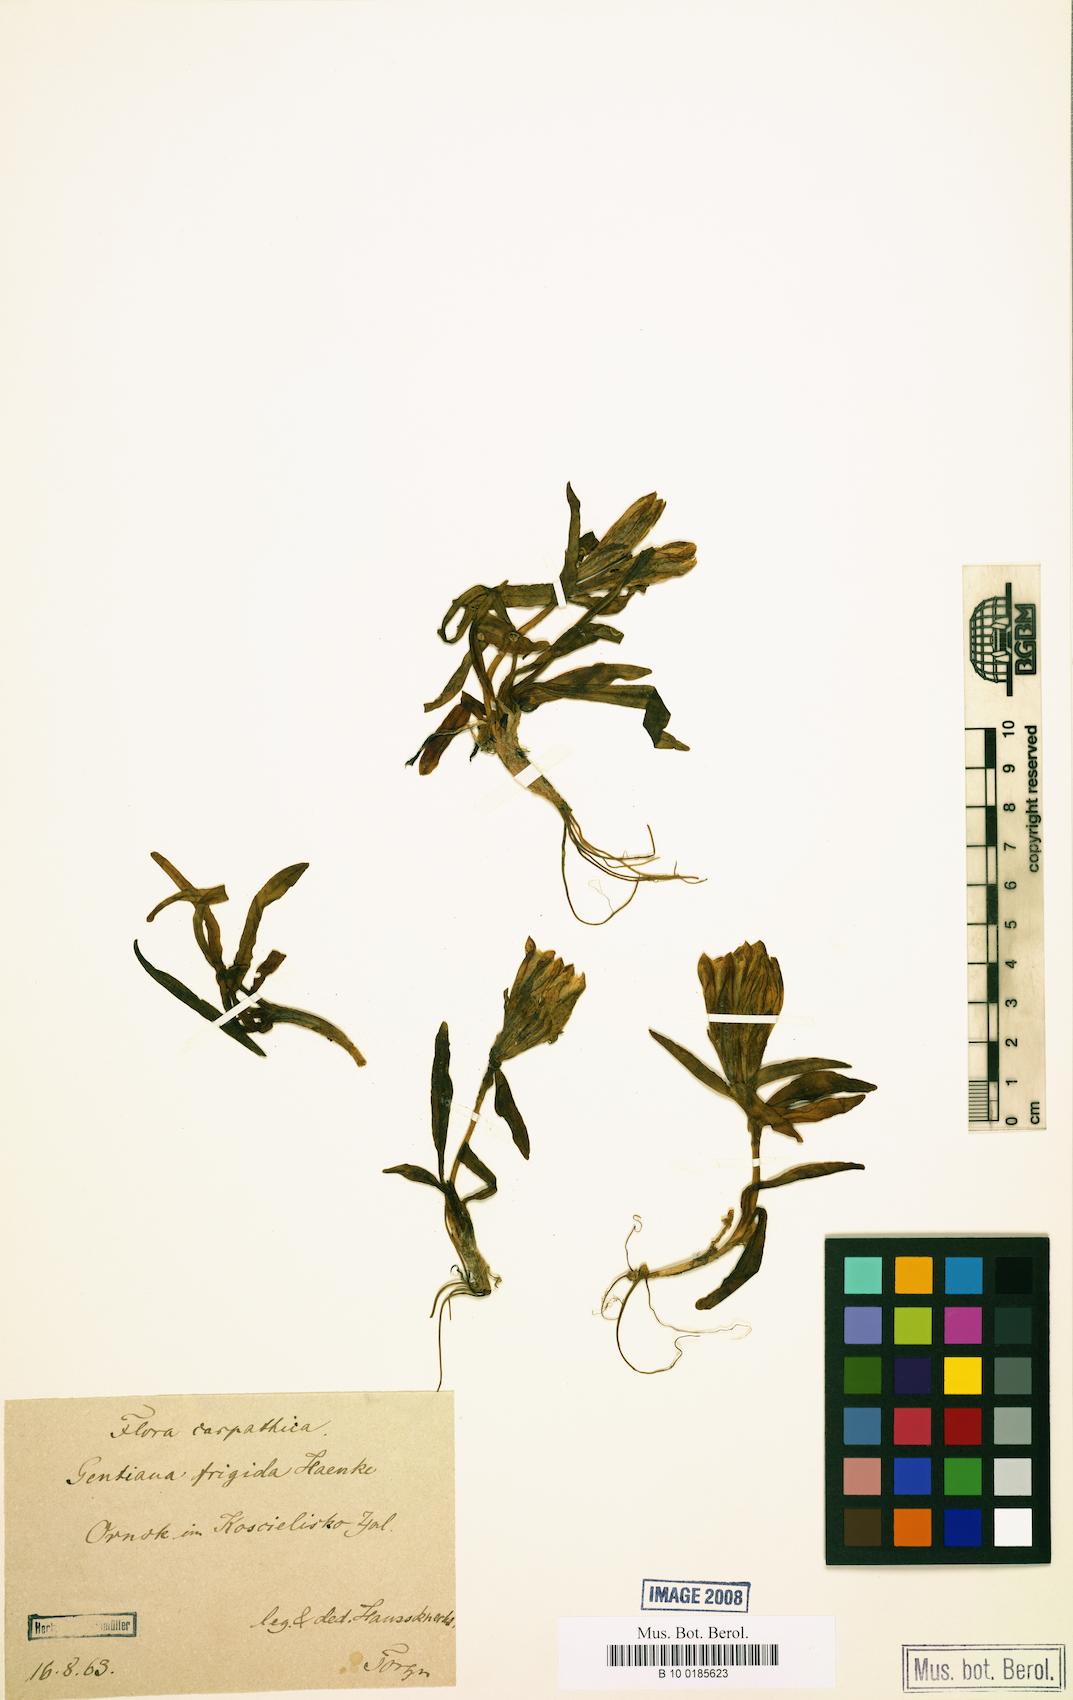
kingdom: Plantae
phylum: Tracheophyta
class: Magnoliopsida
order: Gentianales
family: Gentianaceae
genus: Gentiana
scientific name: Gentiana frigida
